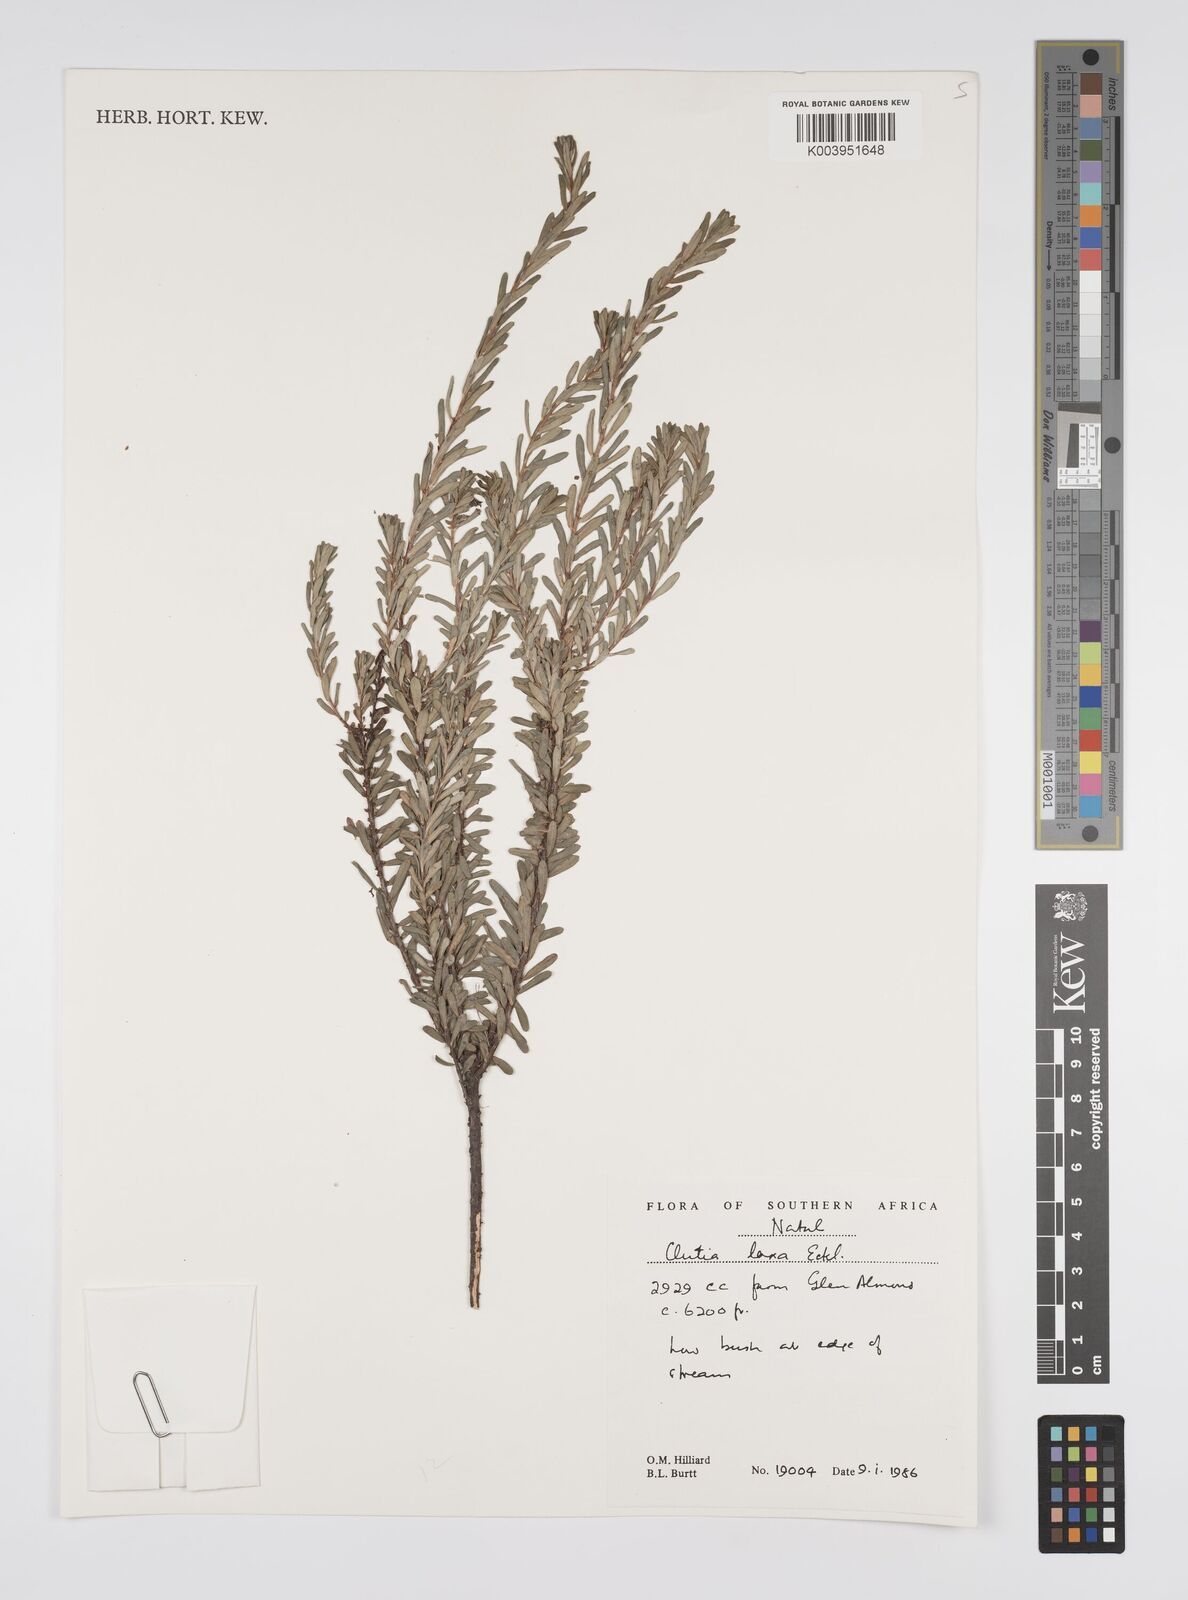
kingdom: Plantae
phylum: Tracheophyta
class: Magnoliopsida
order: Malpighiales
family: Peraceae
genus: Clutia
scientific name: Clutia laxa
